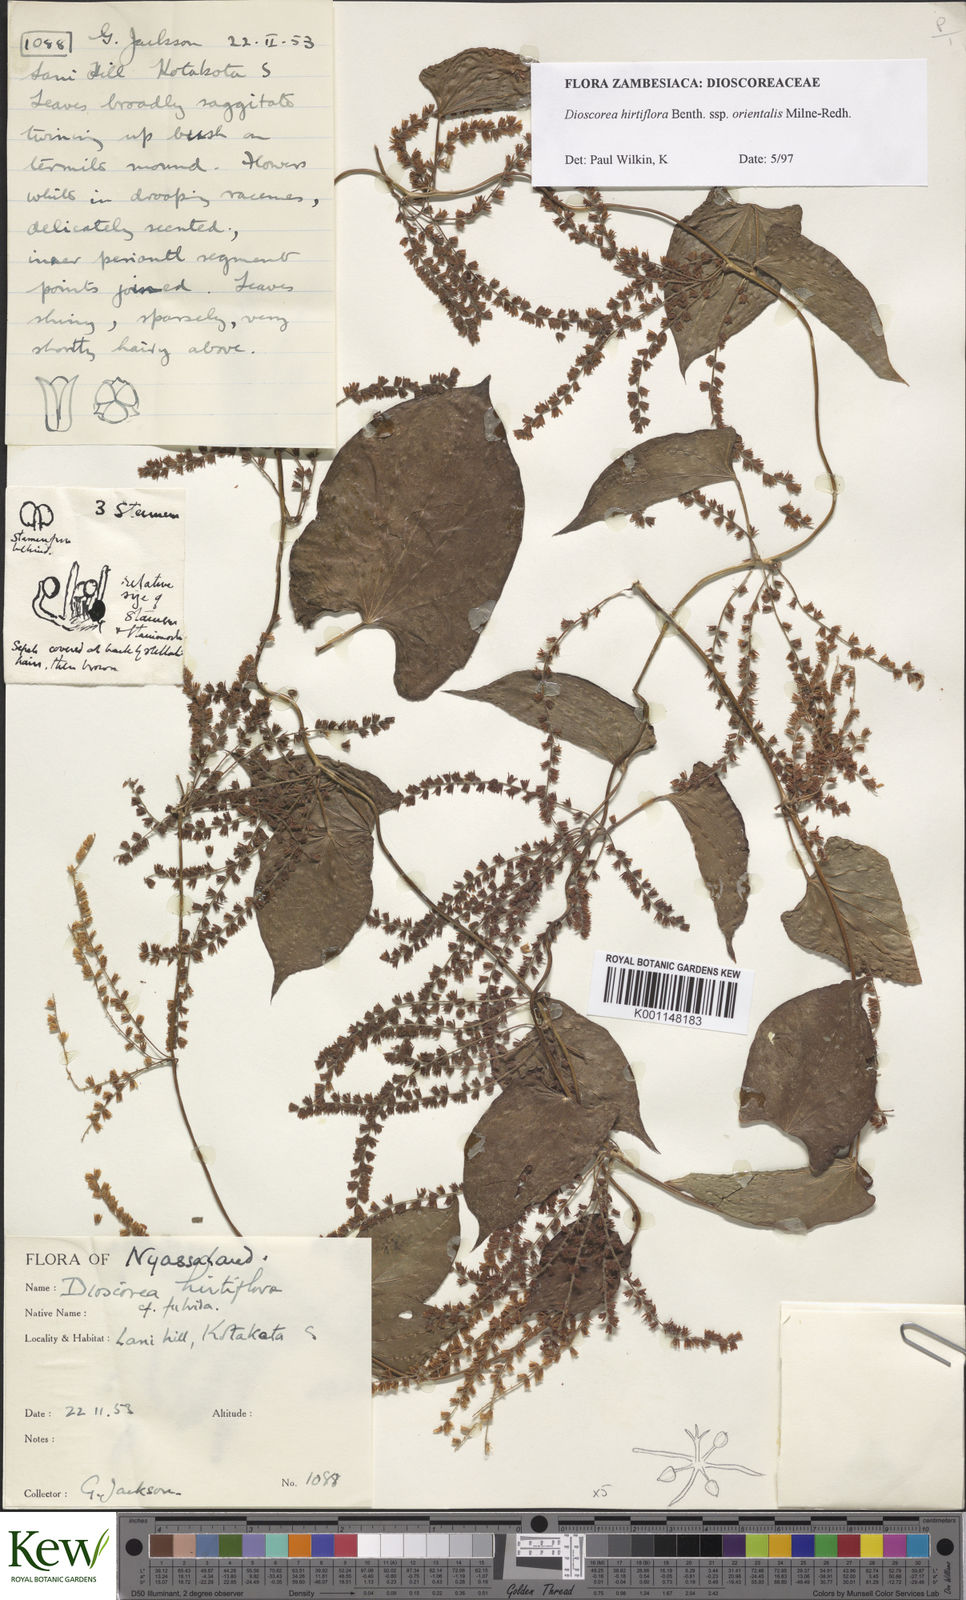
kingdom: Plantae
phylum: Tracheophyta
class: Liliopsida
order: Dioscoreales
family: Dioscoreaceae
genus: Dioscorea
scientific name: Dioscorea hirtiflora
